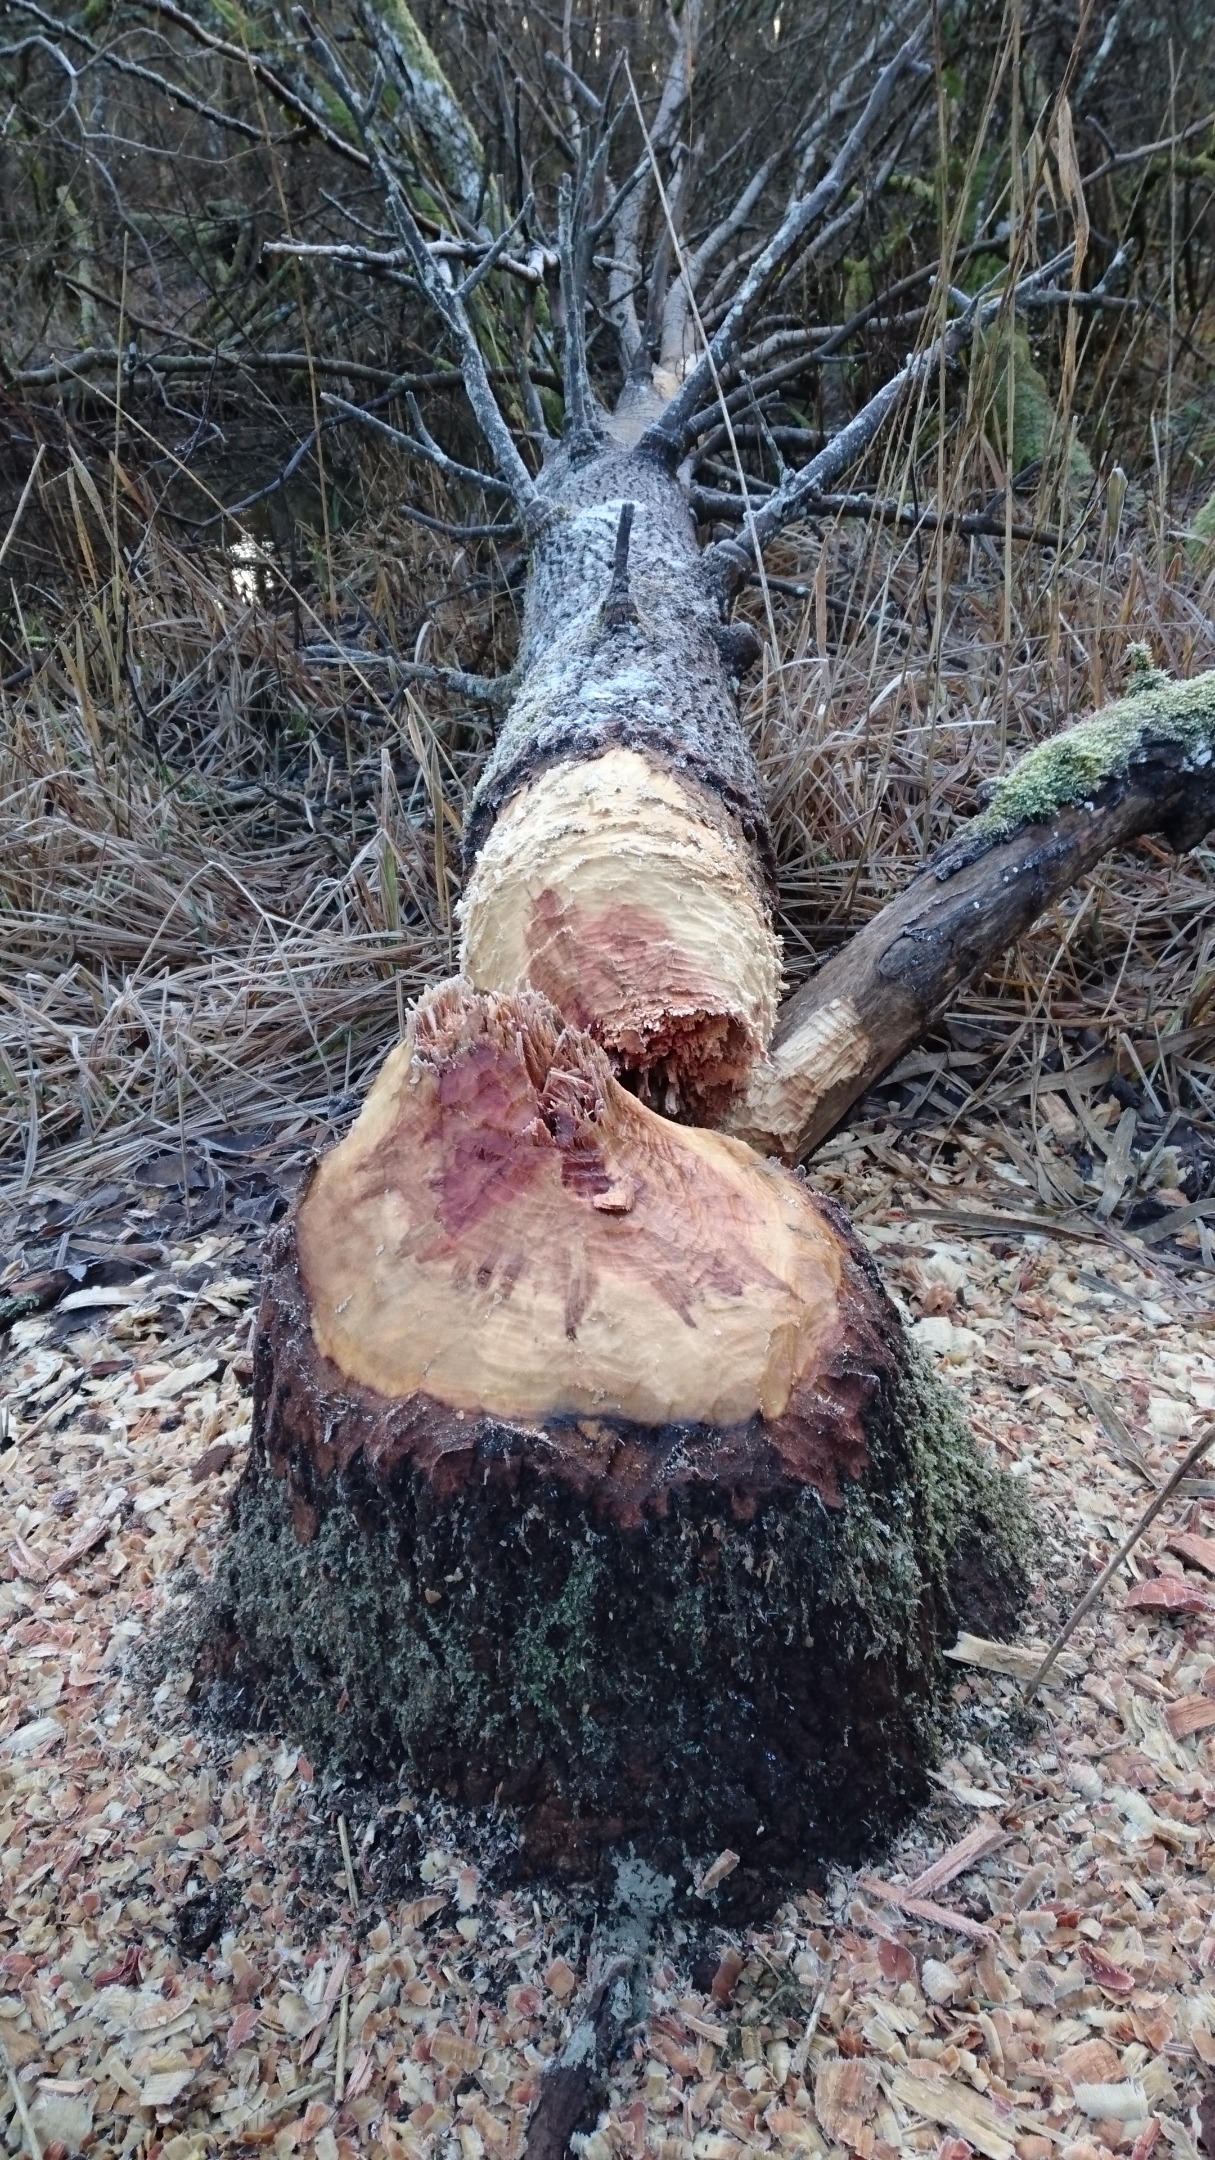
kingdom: Animalia
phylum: Chordata
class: Mammalia
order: Rodentia
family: Castoridae
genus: Castor
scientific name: Castor fiber
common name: Bæver
